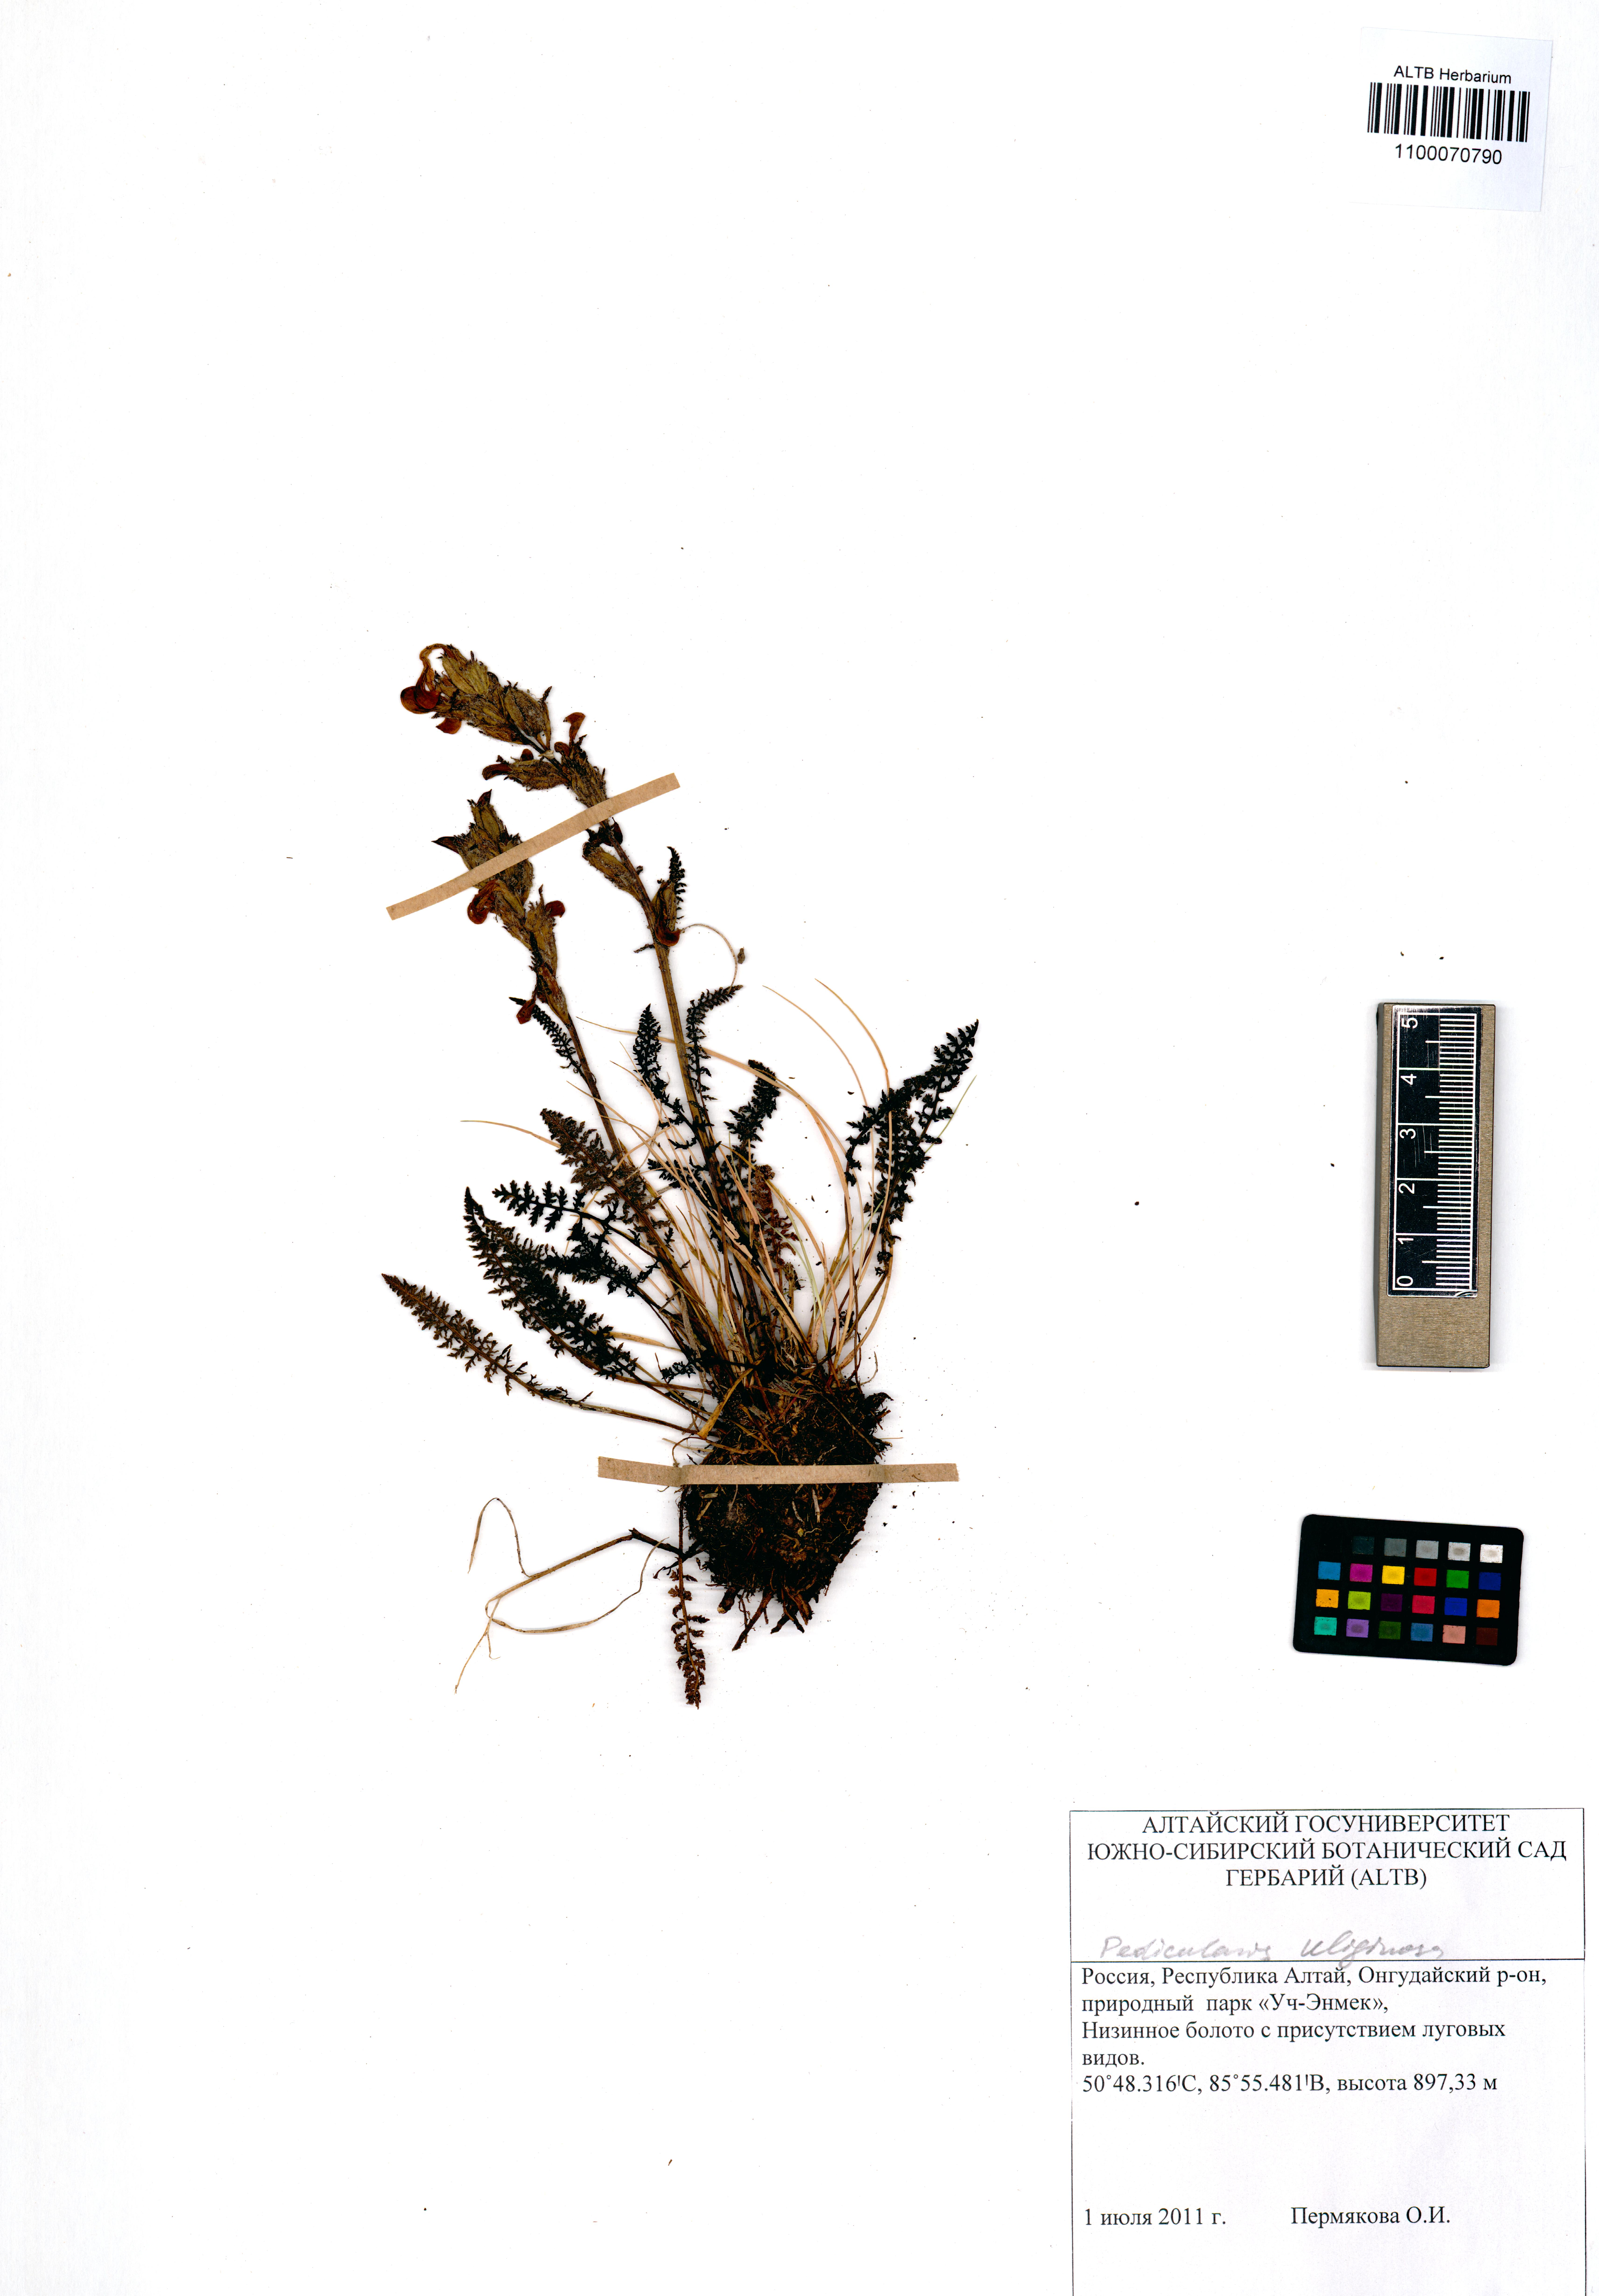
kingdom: Plantae
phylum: Tracheophyta
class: Magnoliopsida
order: Lamiales
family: Orobanchaceae
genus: Pedicularis
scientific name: Pedicularis uliginosa
